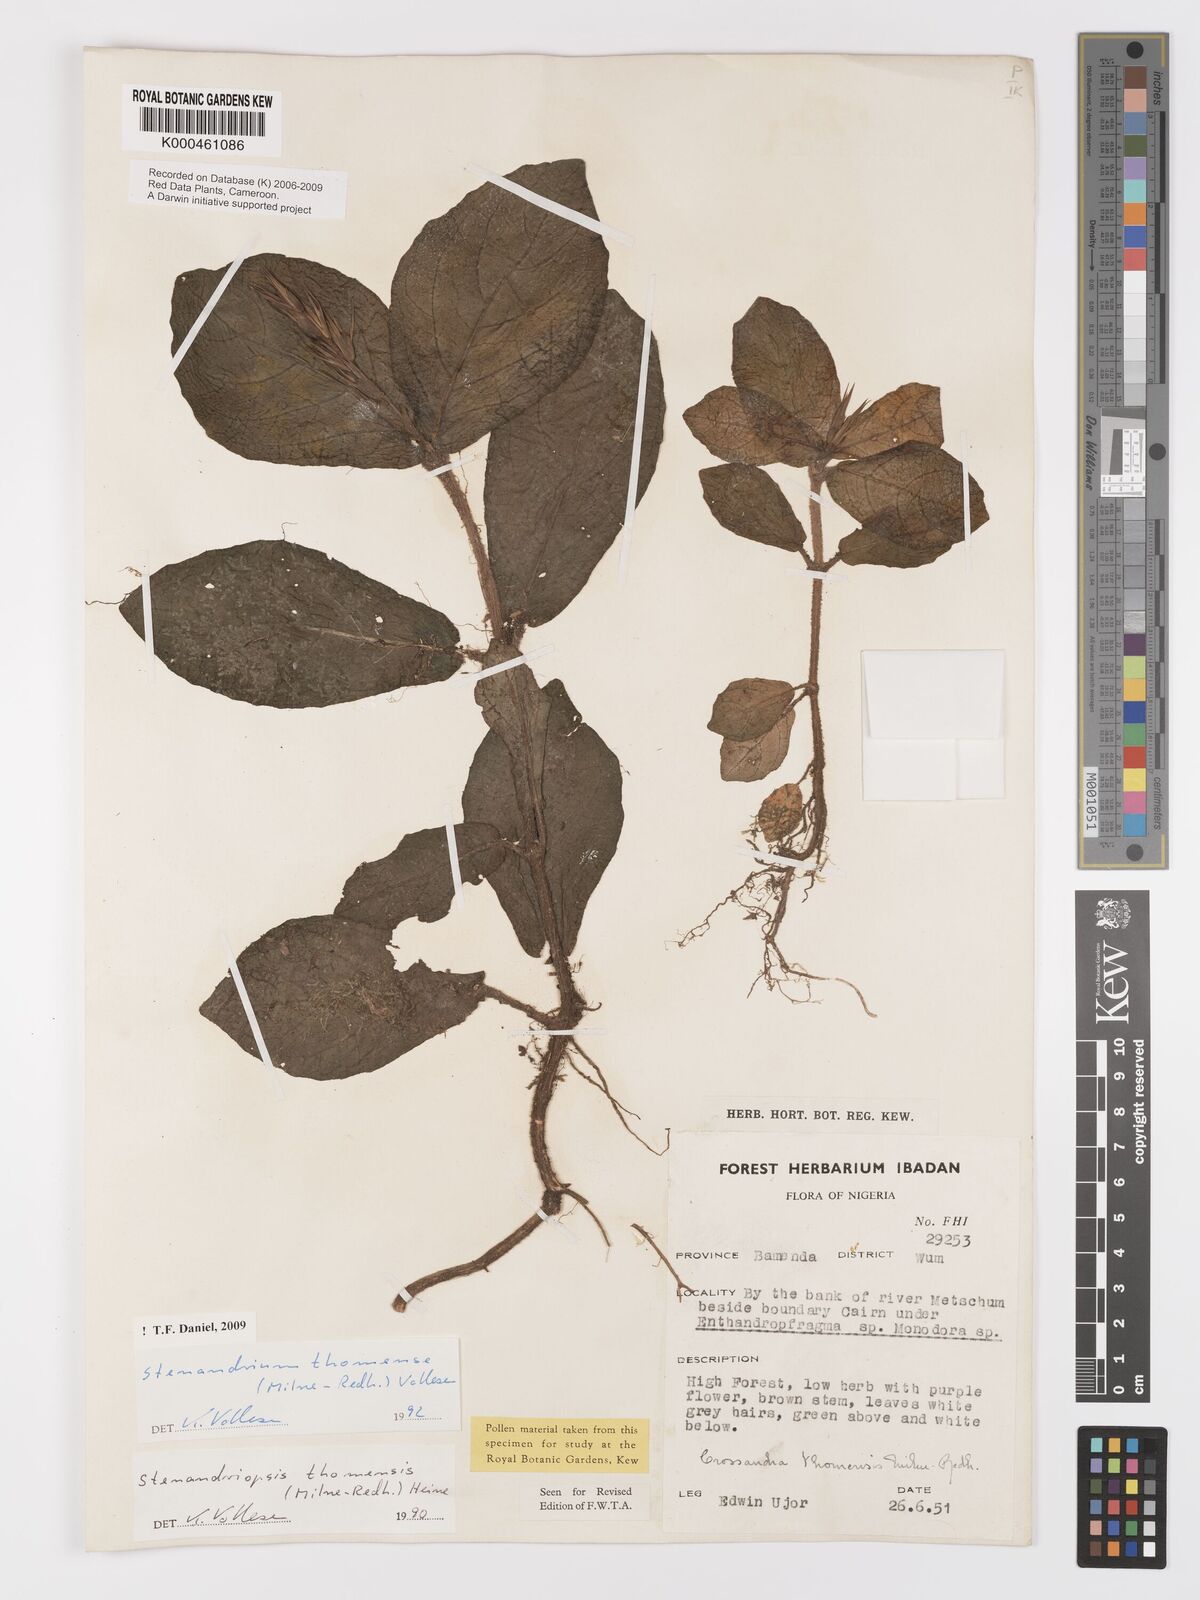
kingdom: Plantae
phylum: Tracheophyta
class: Magnoliopsida
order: Lamiales
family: Acanthaceae
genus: Stenandriopsis
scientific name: Stenandriopsis thomensis
